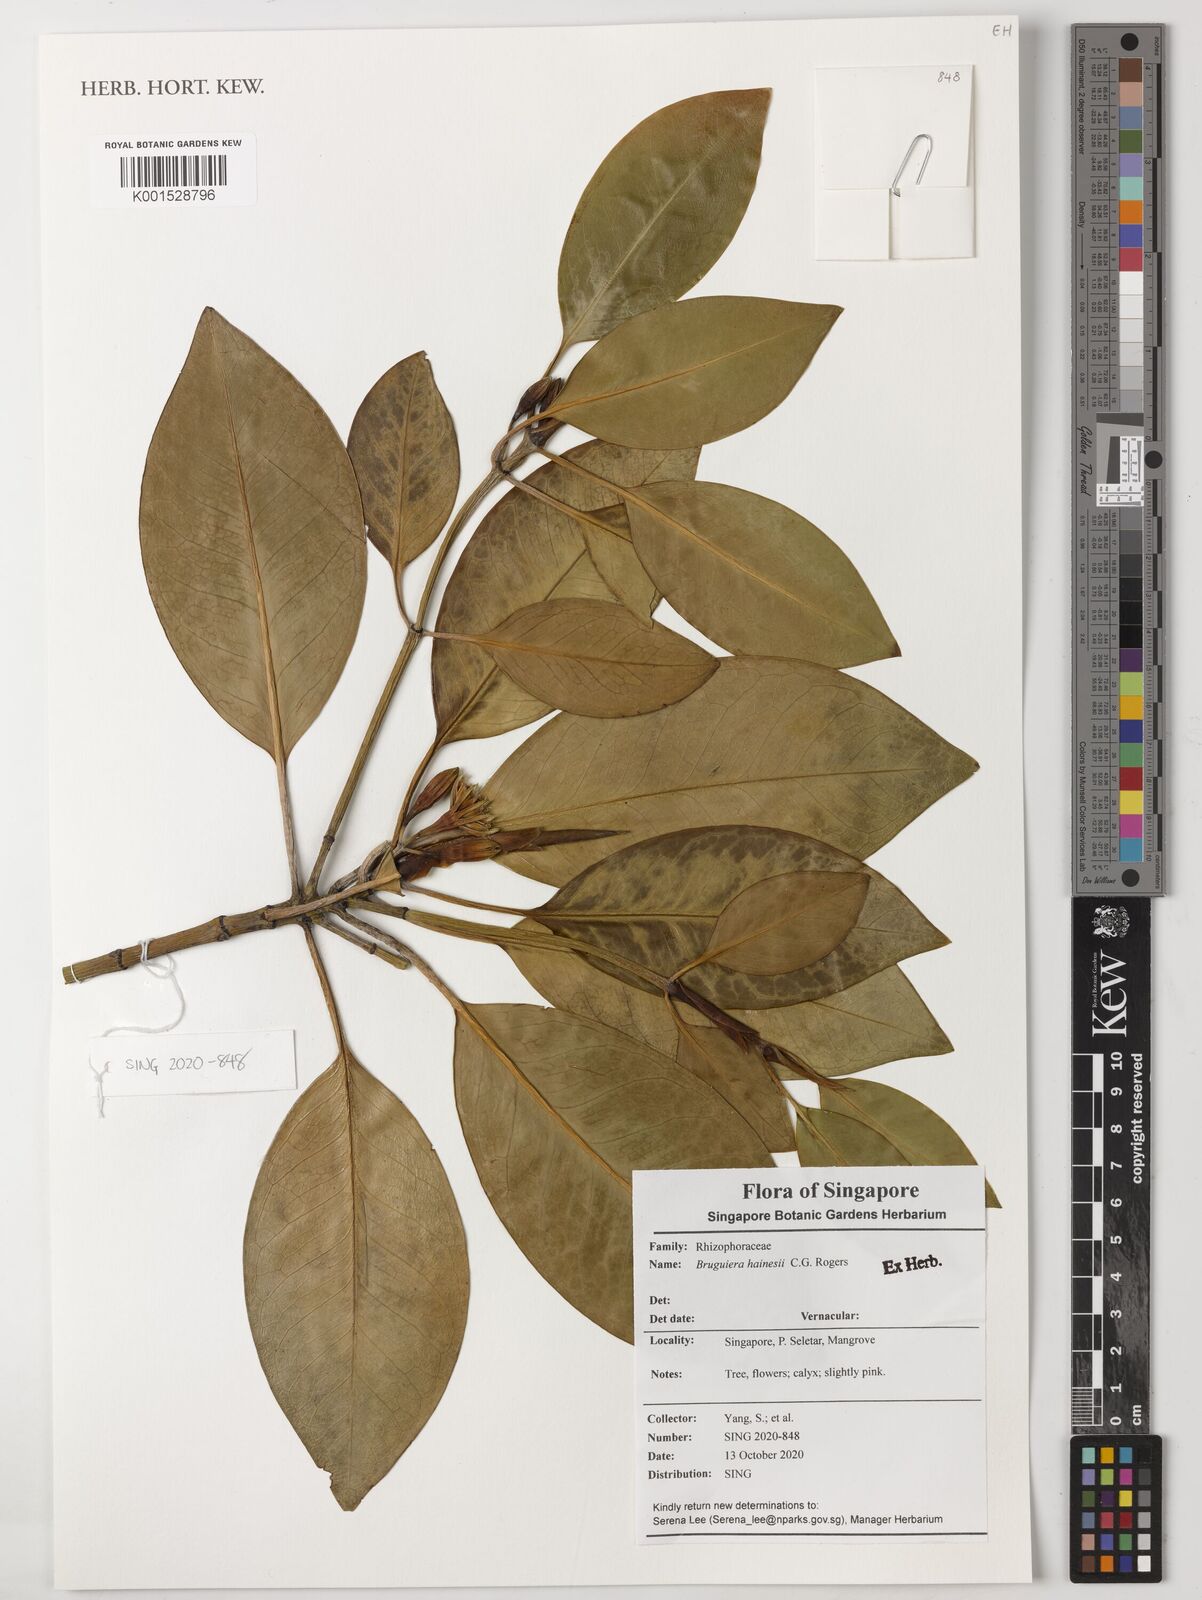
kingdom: Plantae
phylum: Tracheophyta
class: Magnoliopsida
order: Malpighiales
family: Rhizophoraceae
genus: Bruguiera
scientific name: Bruguiera
